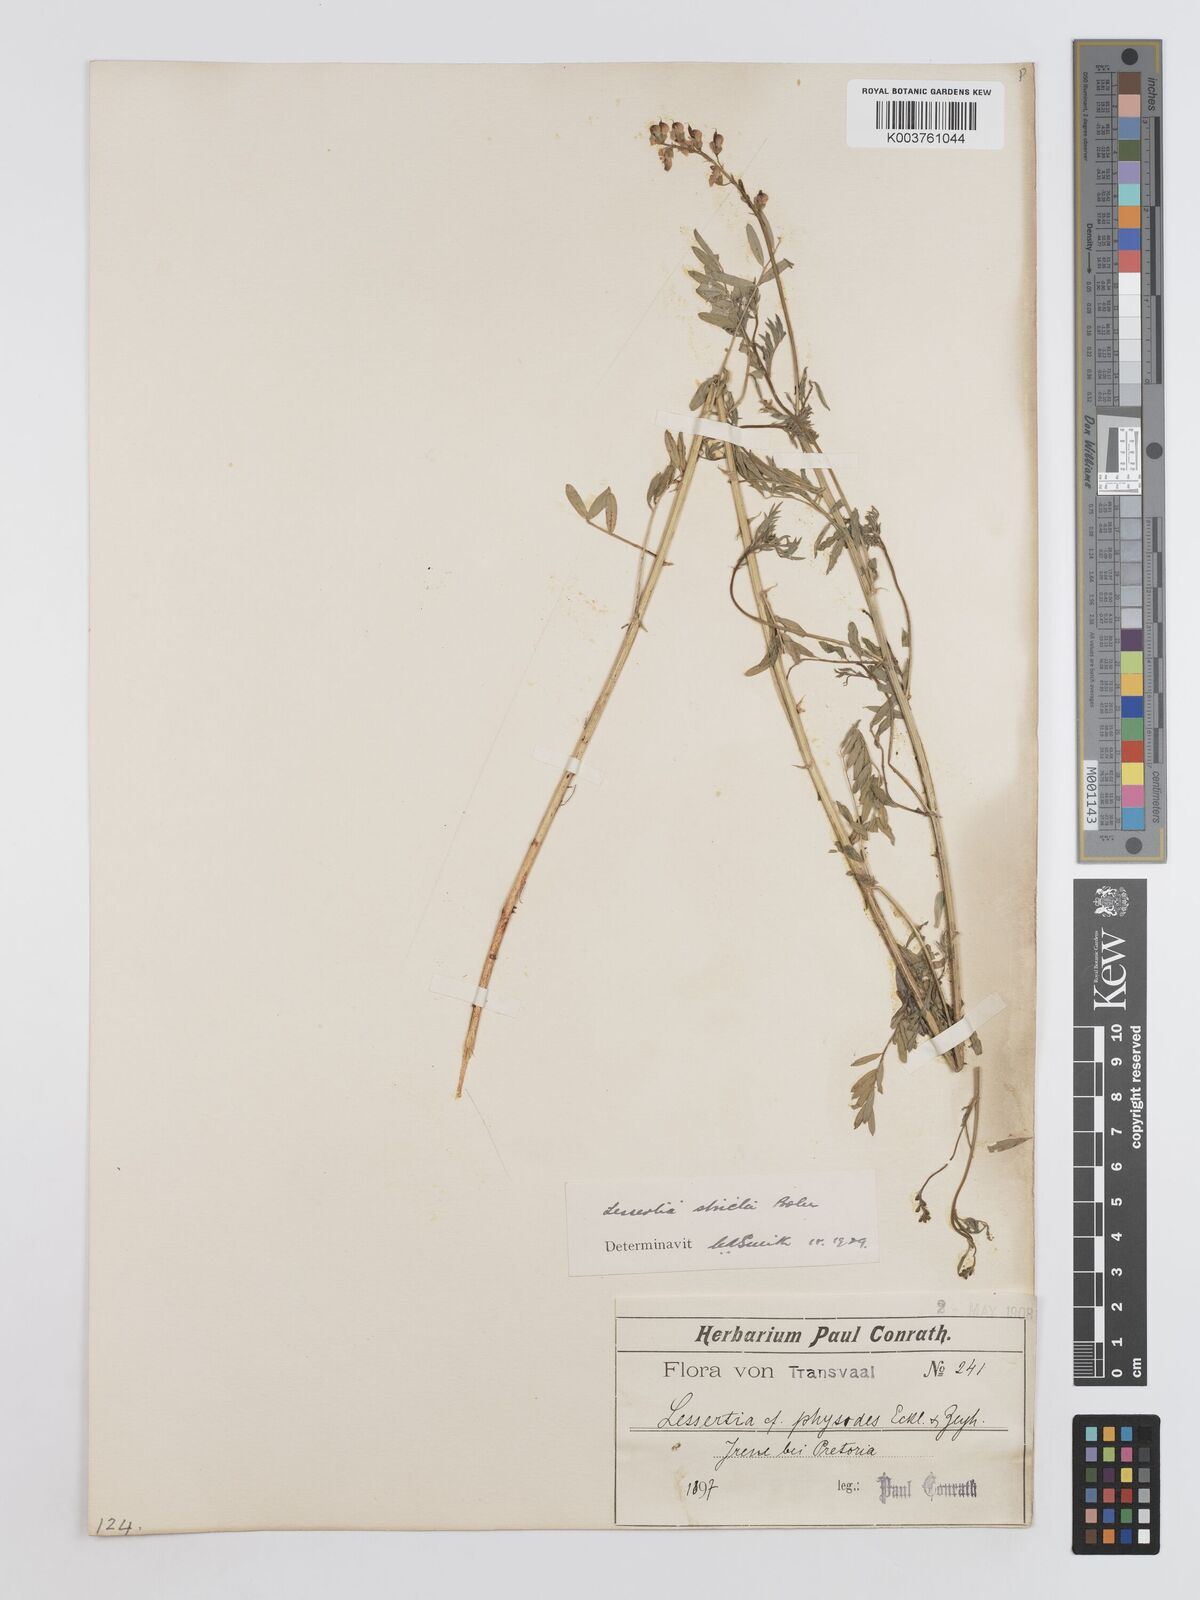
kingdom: Plantae
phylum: Tracheophyta
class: Magnoliopsida
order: Fabales
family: Fabaceae
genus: Lessertia
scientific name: Lessertia stricta
